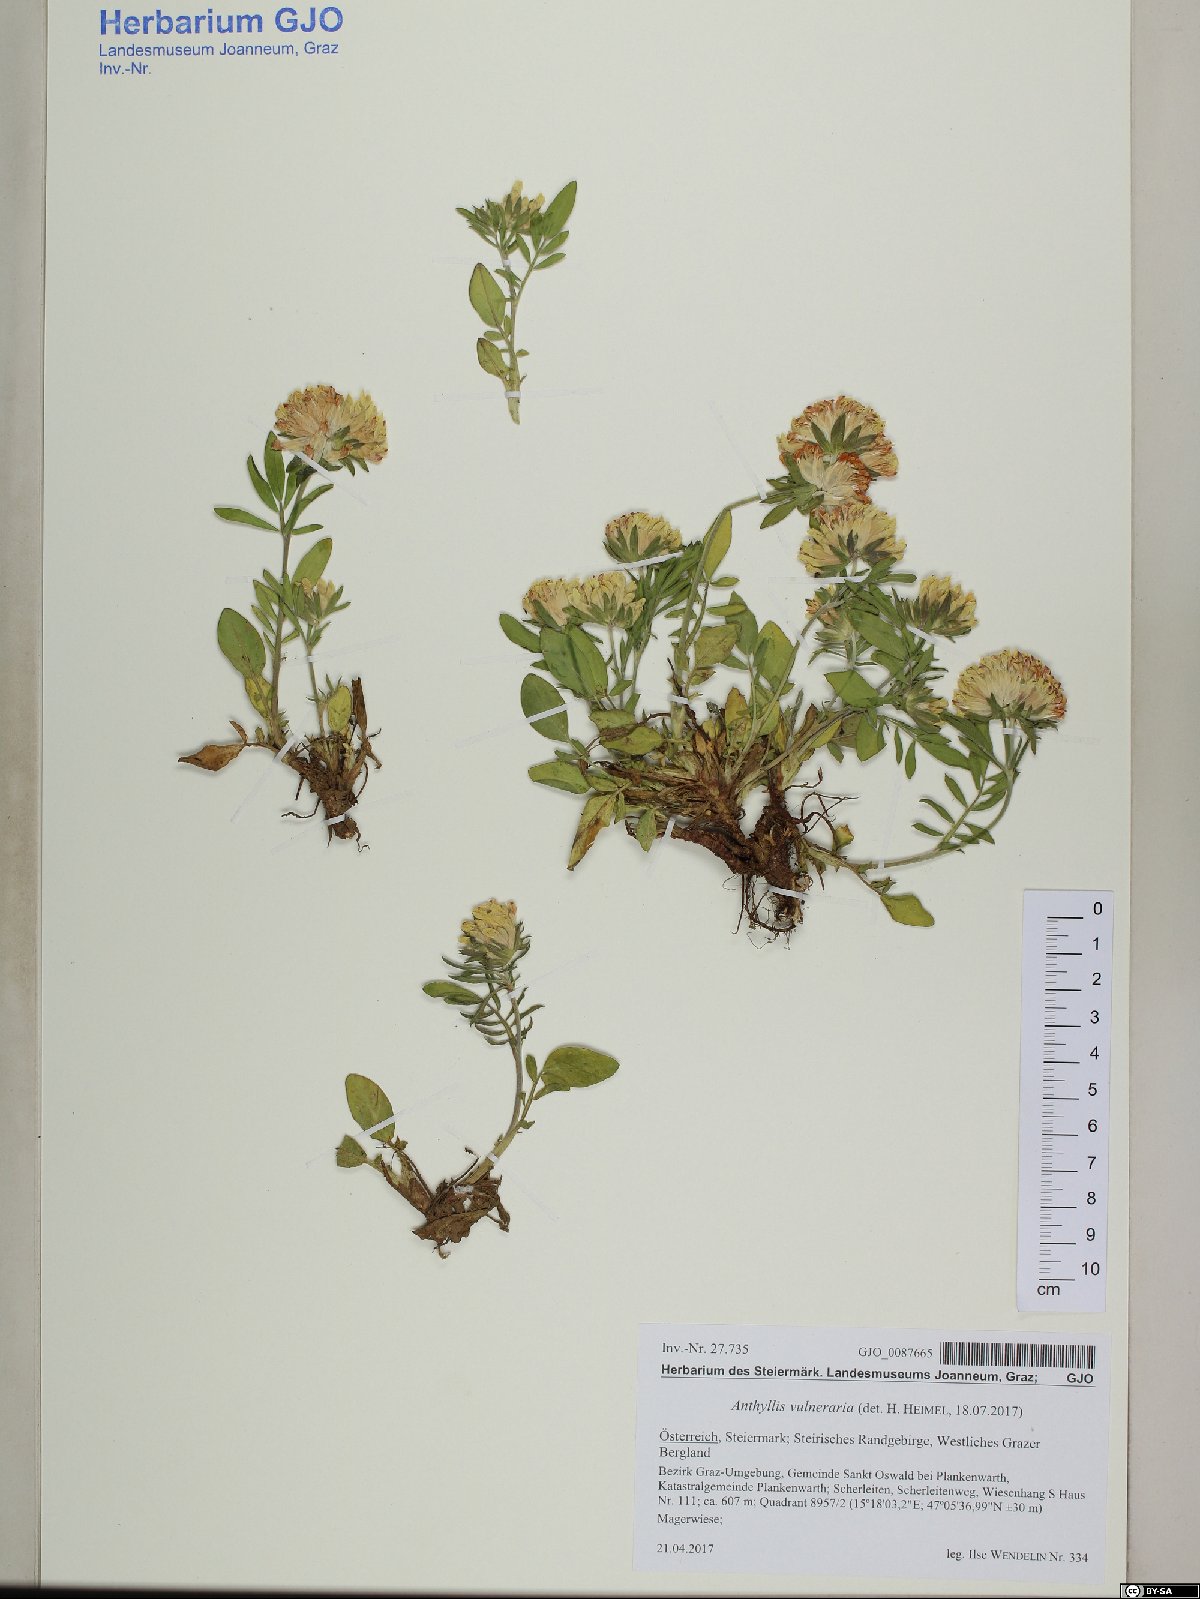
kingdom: Plantae
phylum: Tracheophyta
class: Magnoliopsida
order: Fabales
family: Fabaceae
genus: Anthyllis
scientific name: Anthyllis vulneraria
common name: Kidney vetch
